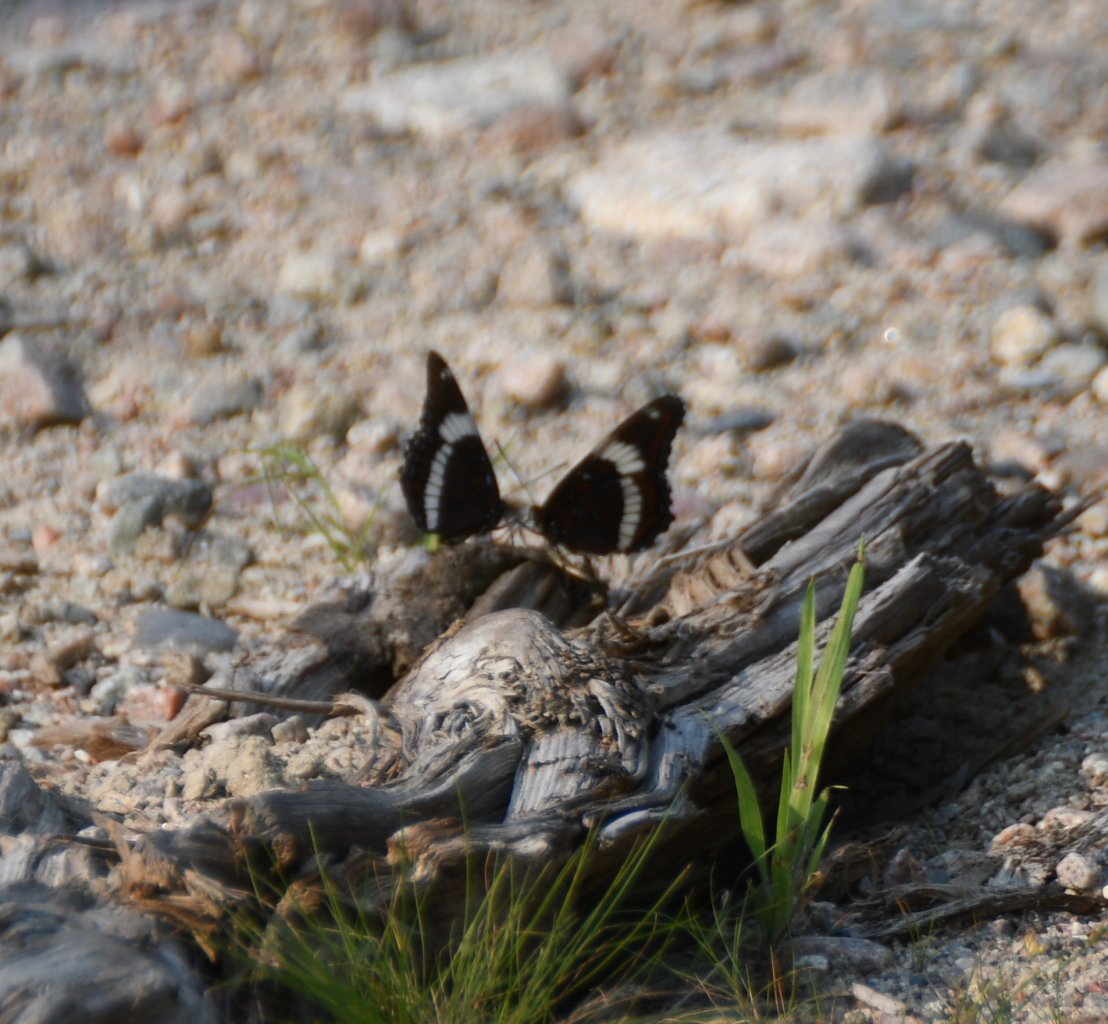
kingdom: Animalia
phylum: Arthropoda
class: Insecta
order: Lepidoptera
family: Nymphalidae
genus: Limenitis
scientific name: Limenitis arthemis
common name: Red-spotted Admiral
